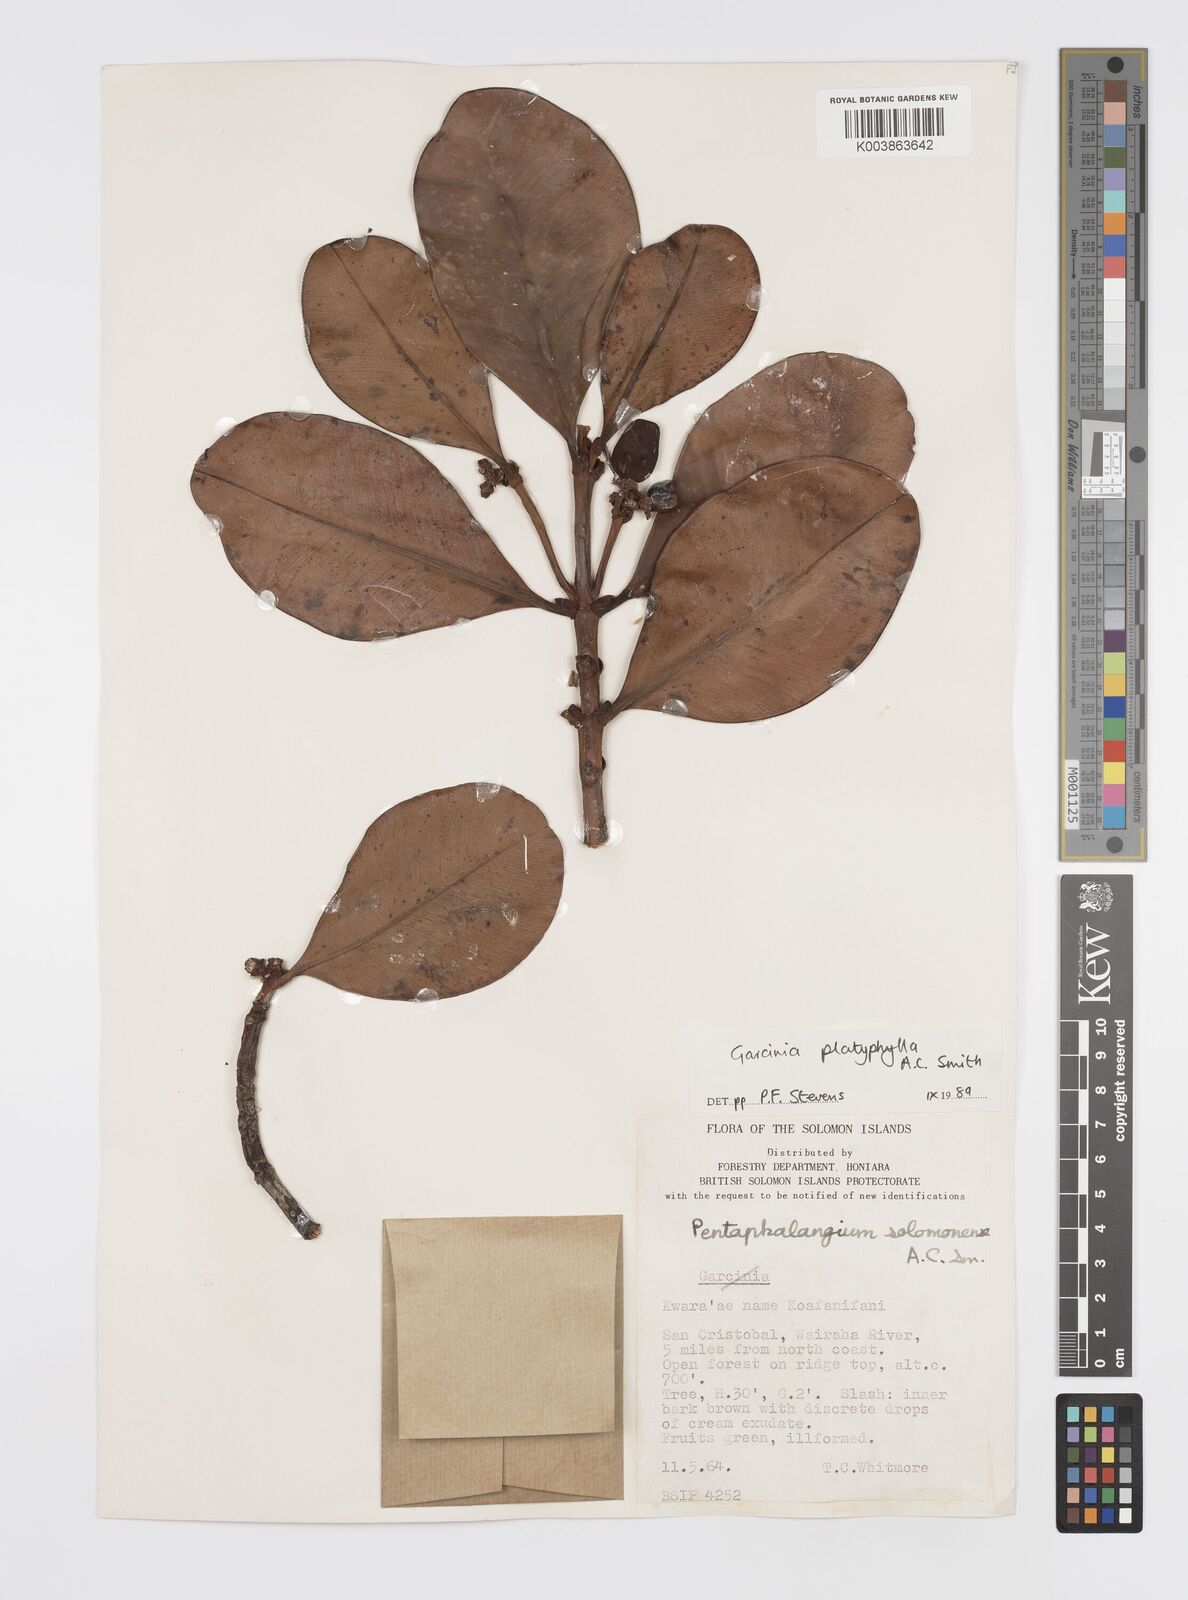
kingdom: Plantae
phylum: Tracheophyta
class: Magnoliopsida
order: Malpighiales
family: Clusiaceae
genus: Garcinia
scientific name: Garcinia platyphylla
